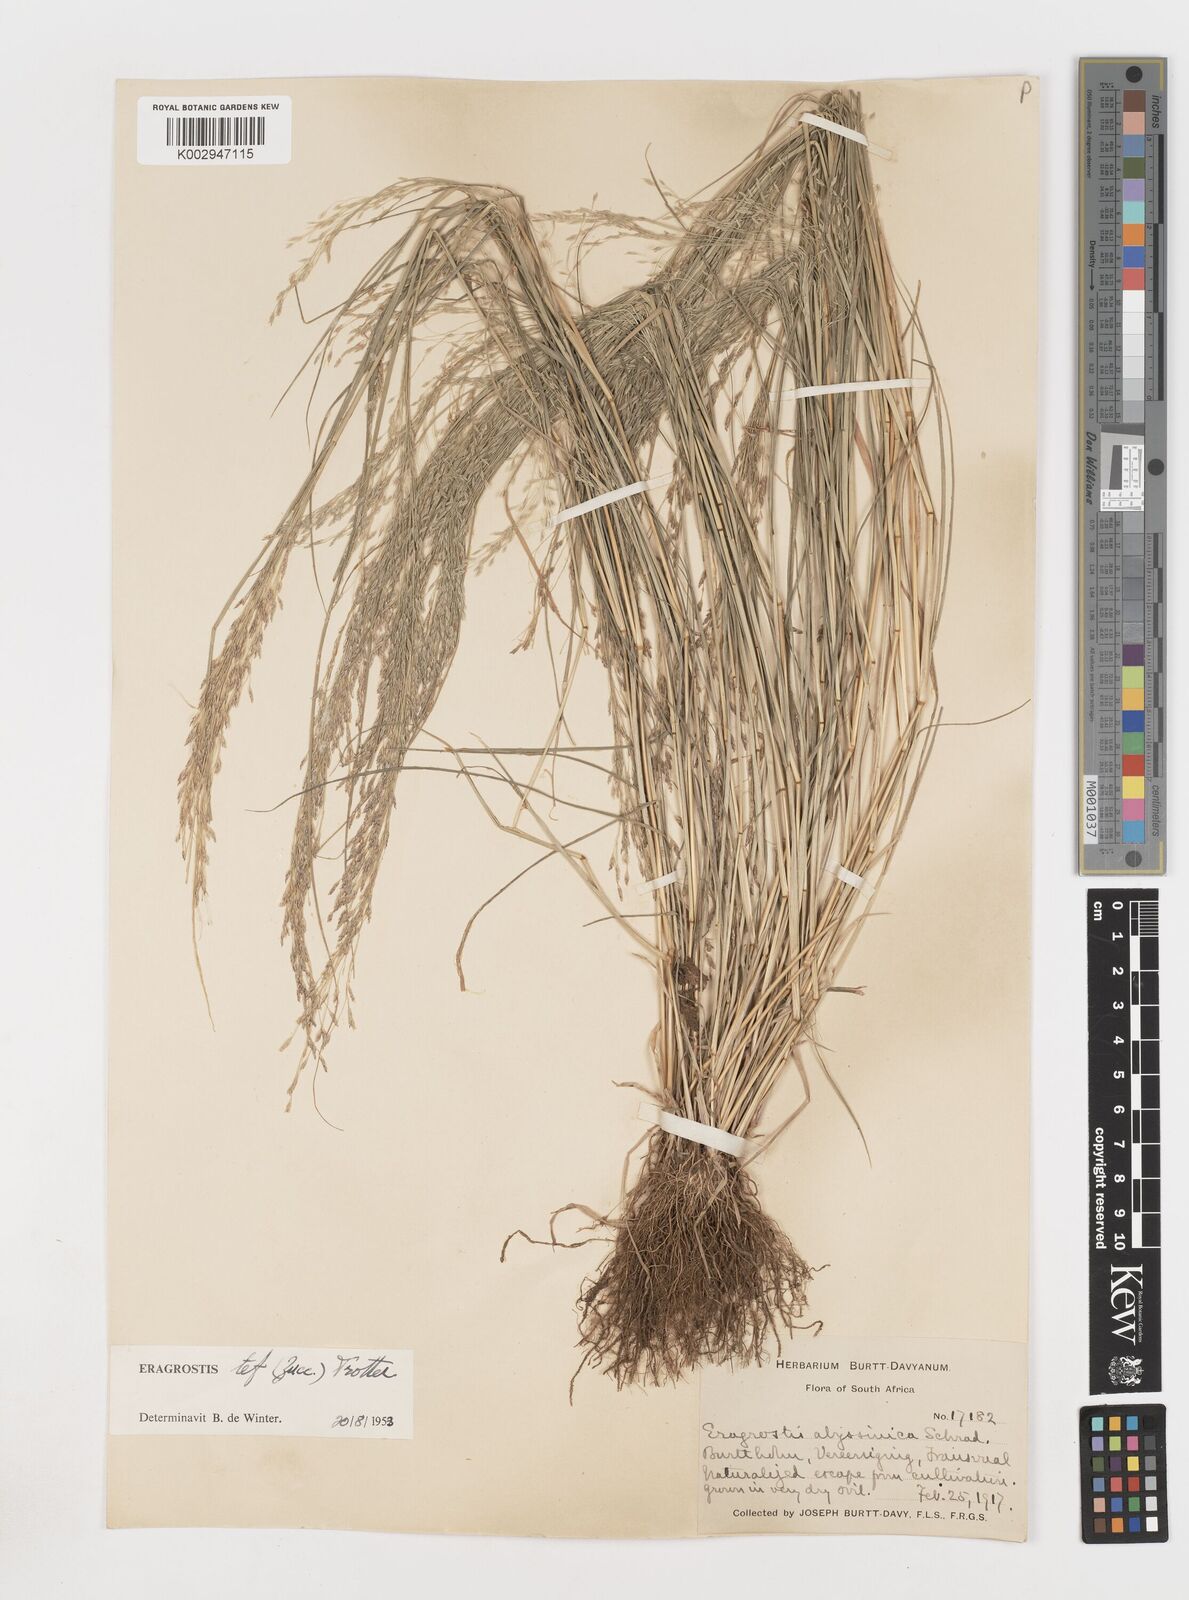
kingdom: Plantae
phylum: Tracheophyta
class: Liliopsida
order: Poales
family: Poaceae
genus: Eragrostis
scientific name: Eragrostis tef
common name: Teff
